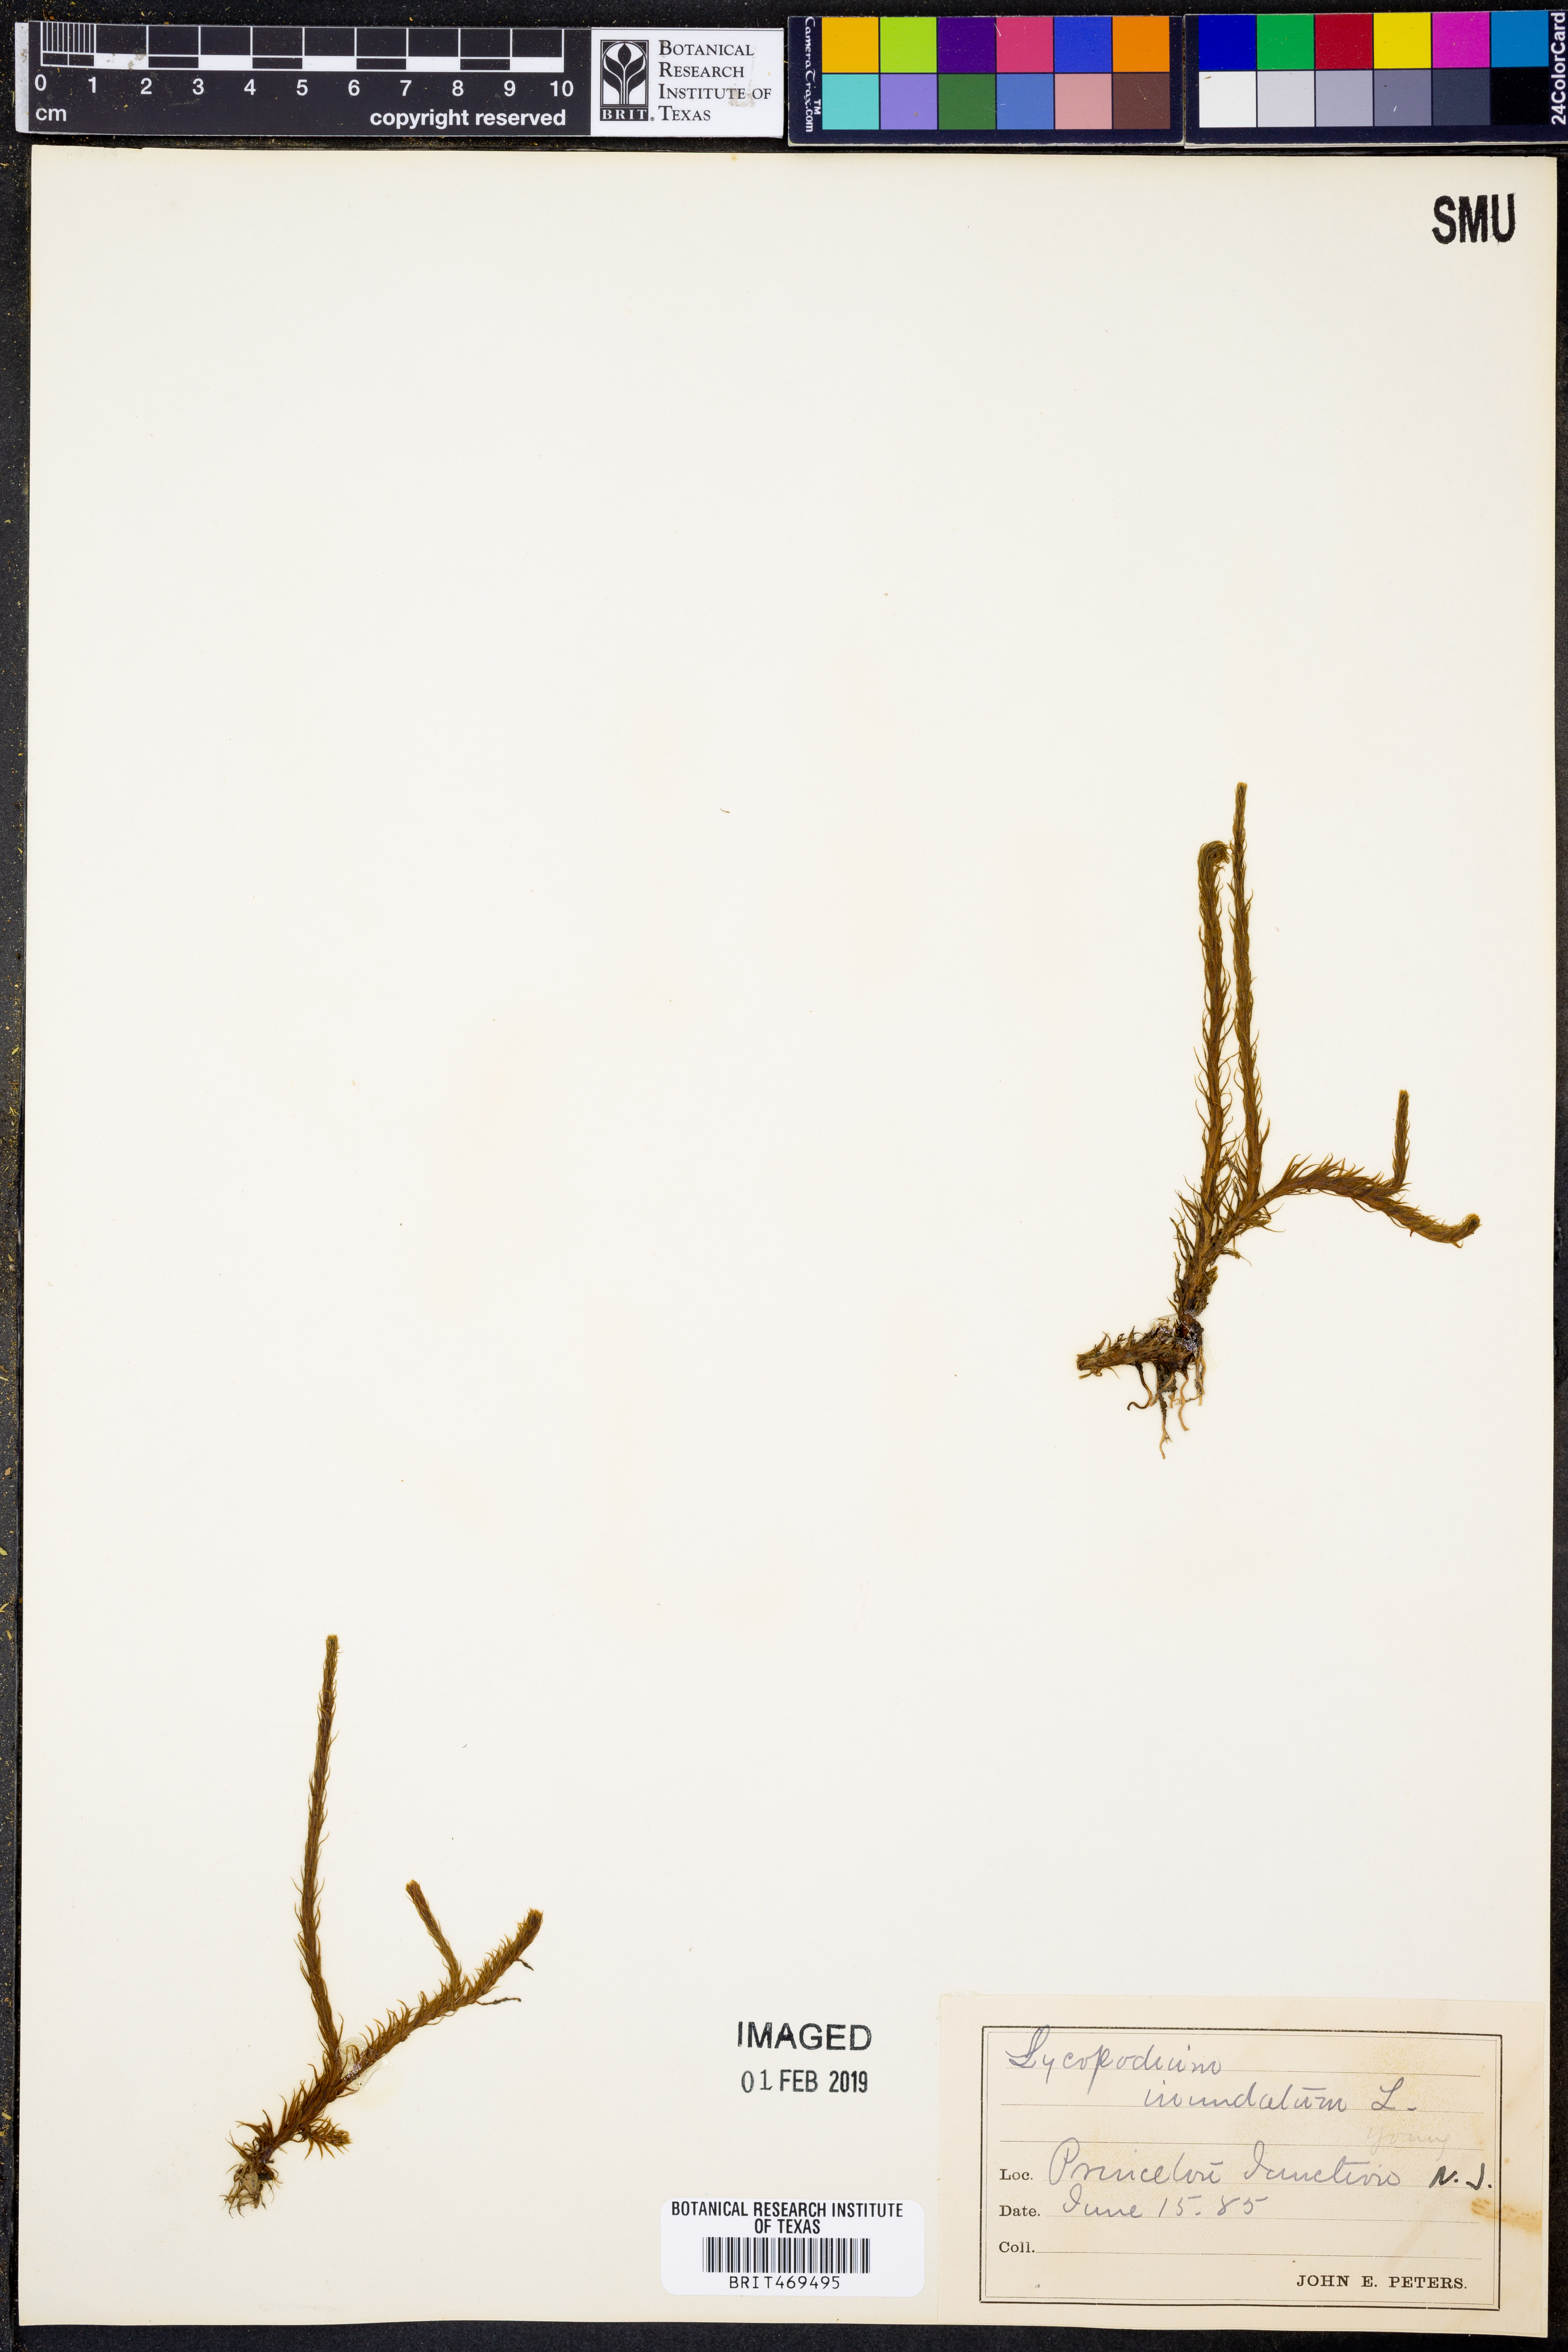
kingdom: Plantae
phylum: Tracheophyta
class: Lycopodiopsida
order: Lycopodiales
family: Lycopodiaceae
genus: Lycopodiella
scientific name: Lycopodiella inundata
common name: Marsh clubmoss
